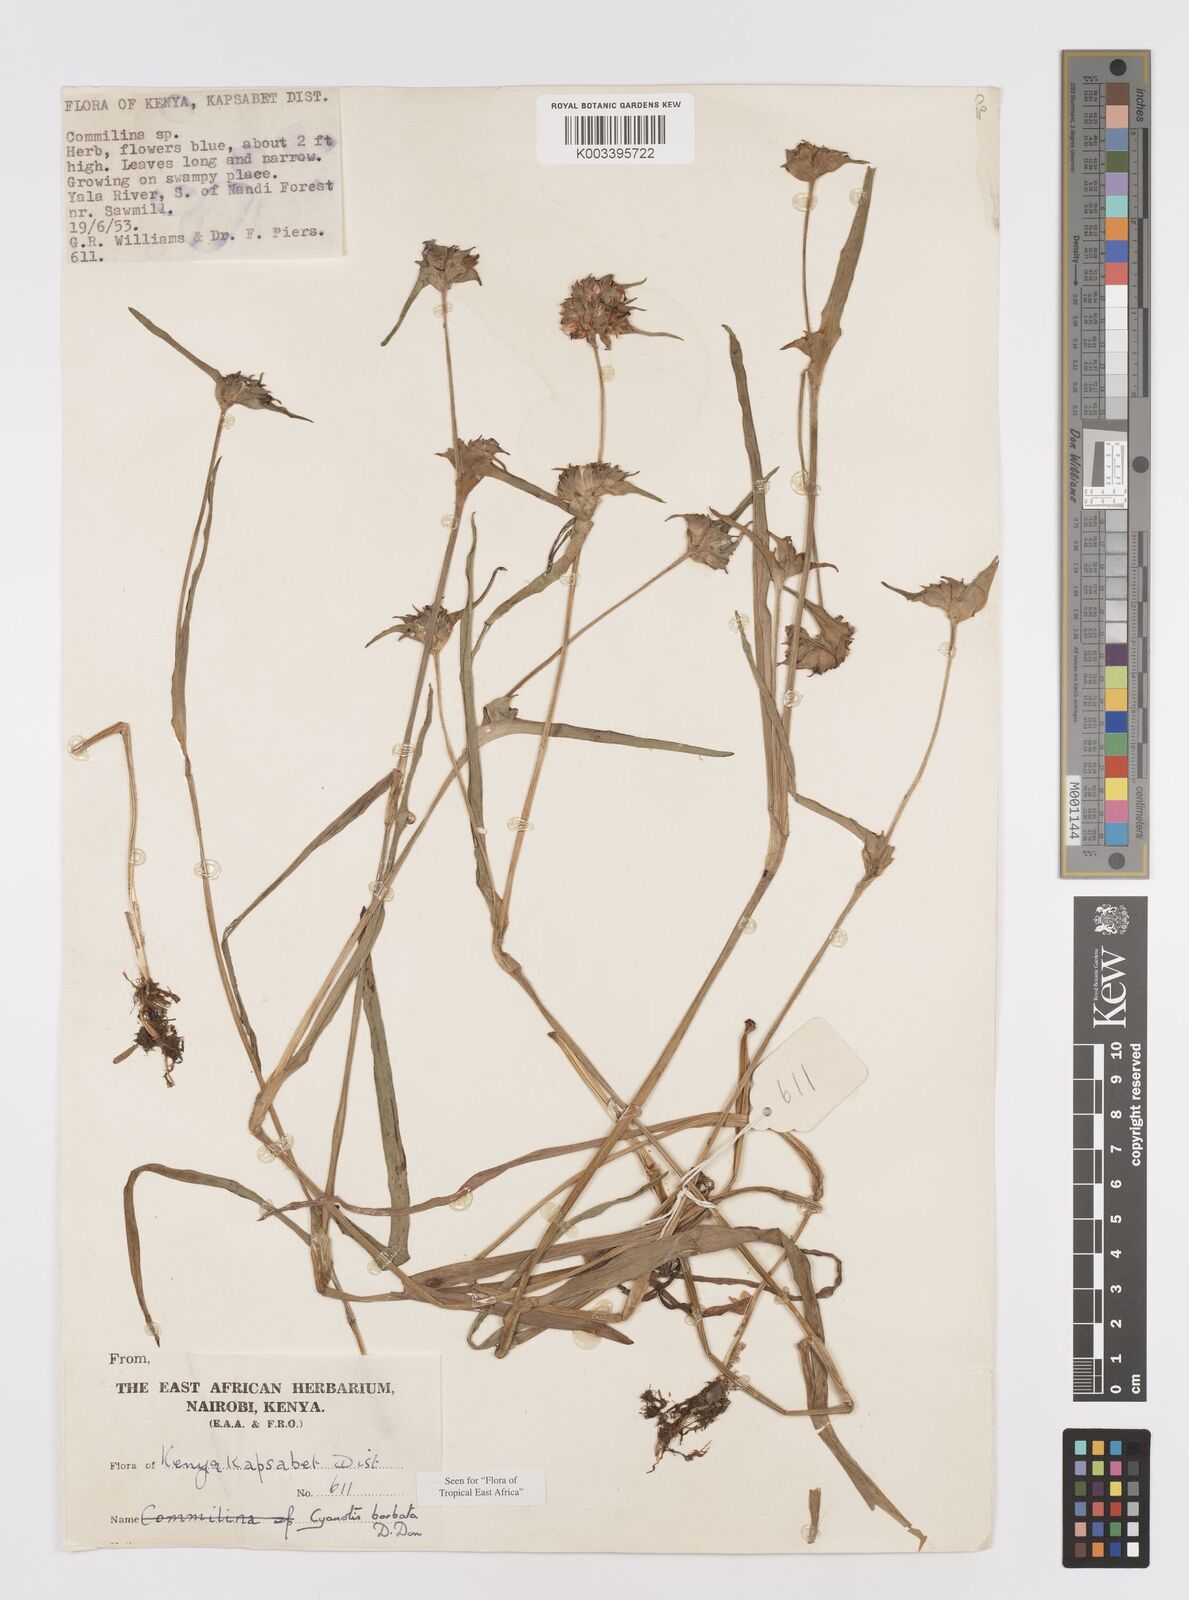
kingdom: Plantae
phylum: Tracheophyta
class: Liliopsida
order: Commelinales
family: Commelinaceae
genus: Cyanotis
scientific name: Cyanotis vaga
